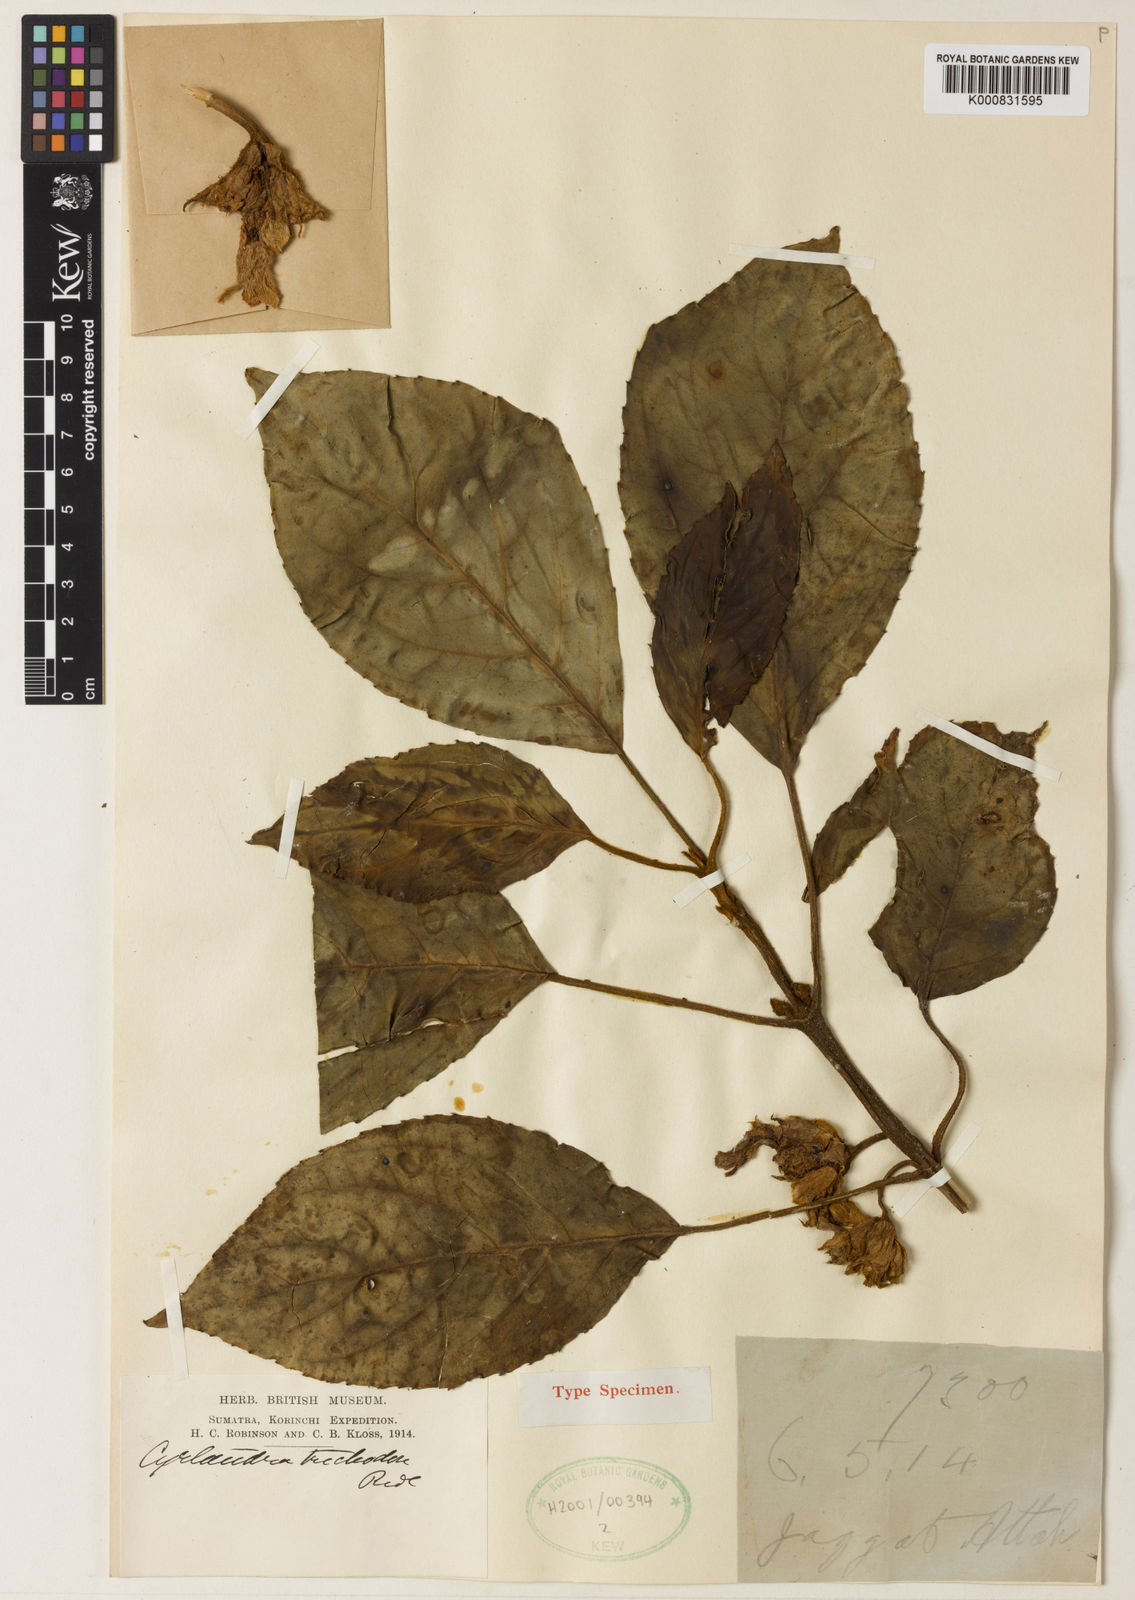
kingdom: Plantae
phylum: Tracheophyta
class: Magnoliopsida
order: Lamiales
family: Gesneriaceae
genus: Cyrtandra
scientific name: Cyrtandra trichodon
